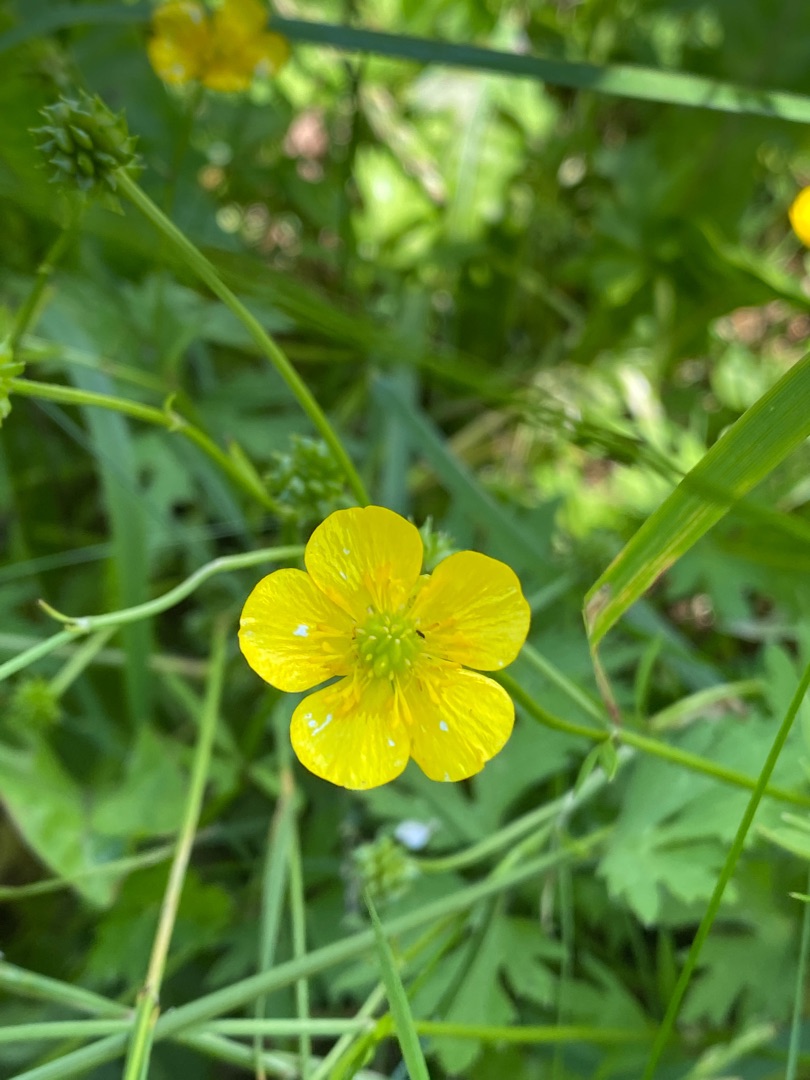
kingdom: Plantae
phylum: Tracheophyta
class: Magnoliopsida
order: Ranunculales
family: Ranunculaceae
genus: Ranunculus
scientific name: Ranunculus acris
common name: Bidende ranunkel
